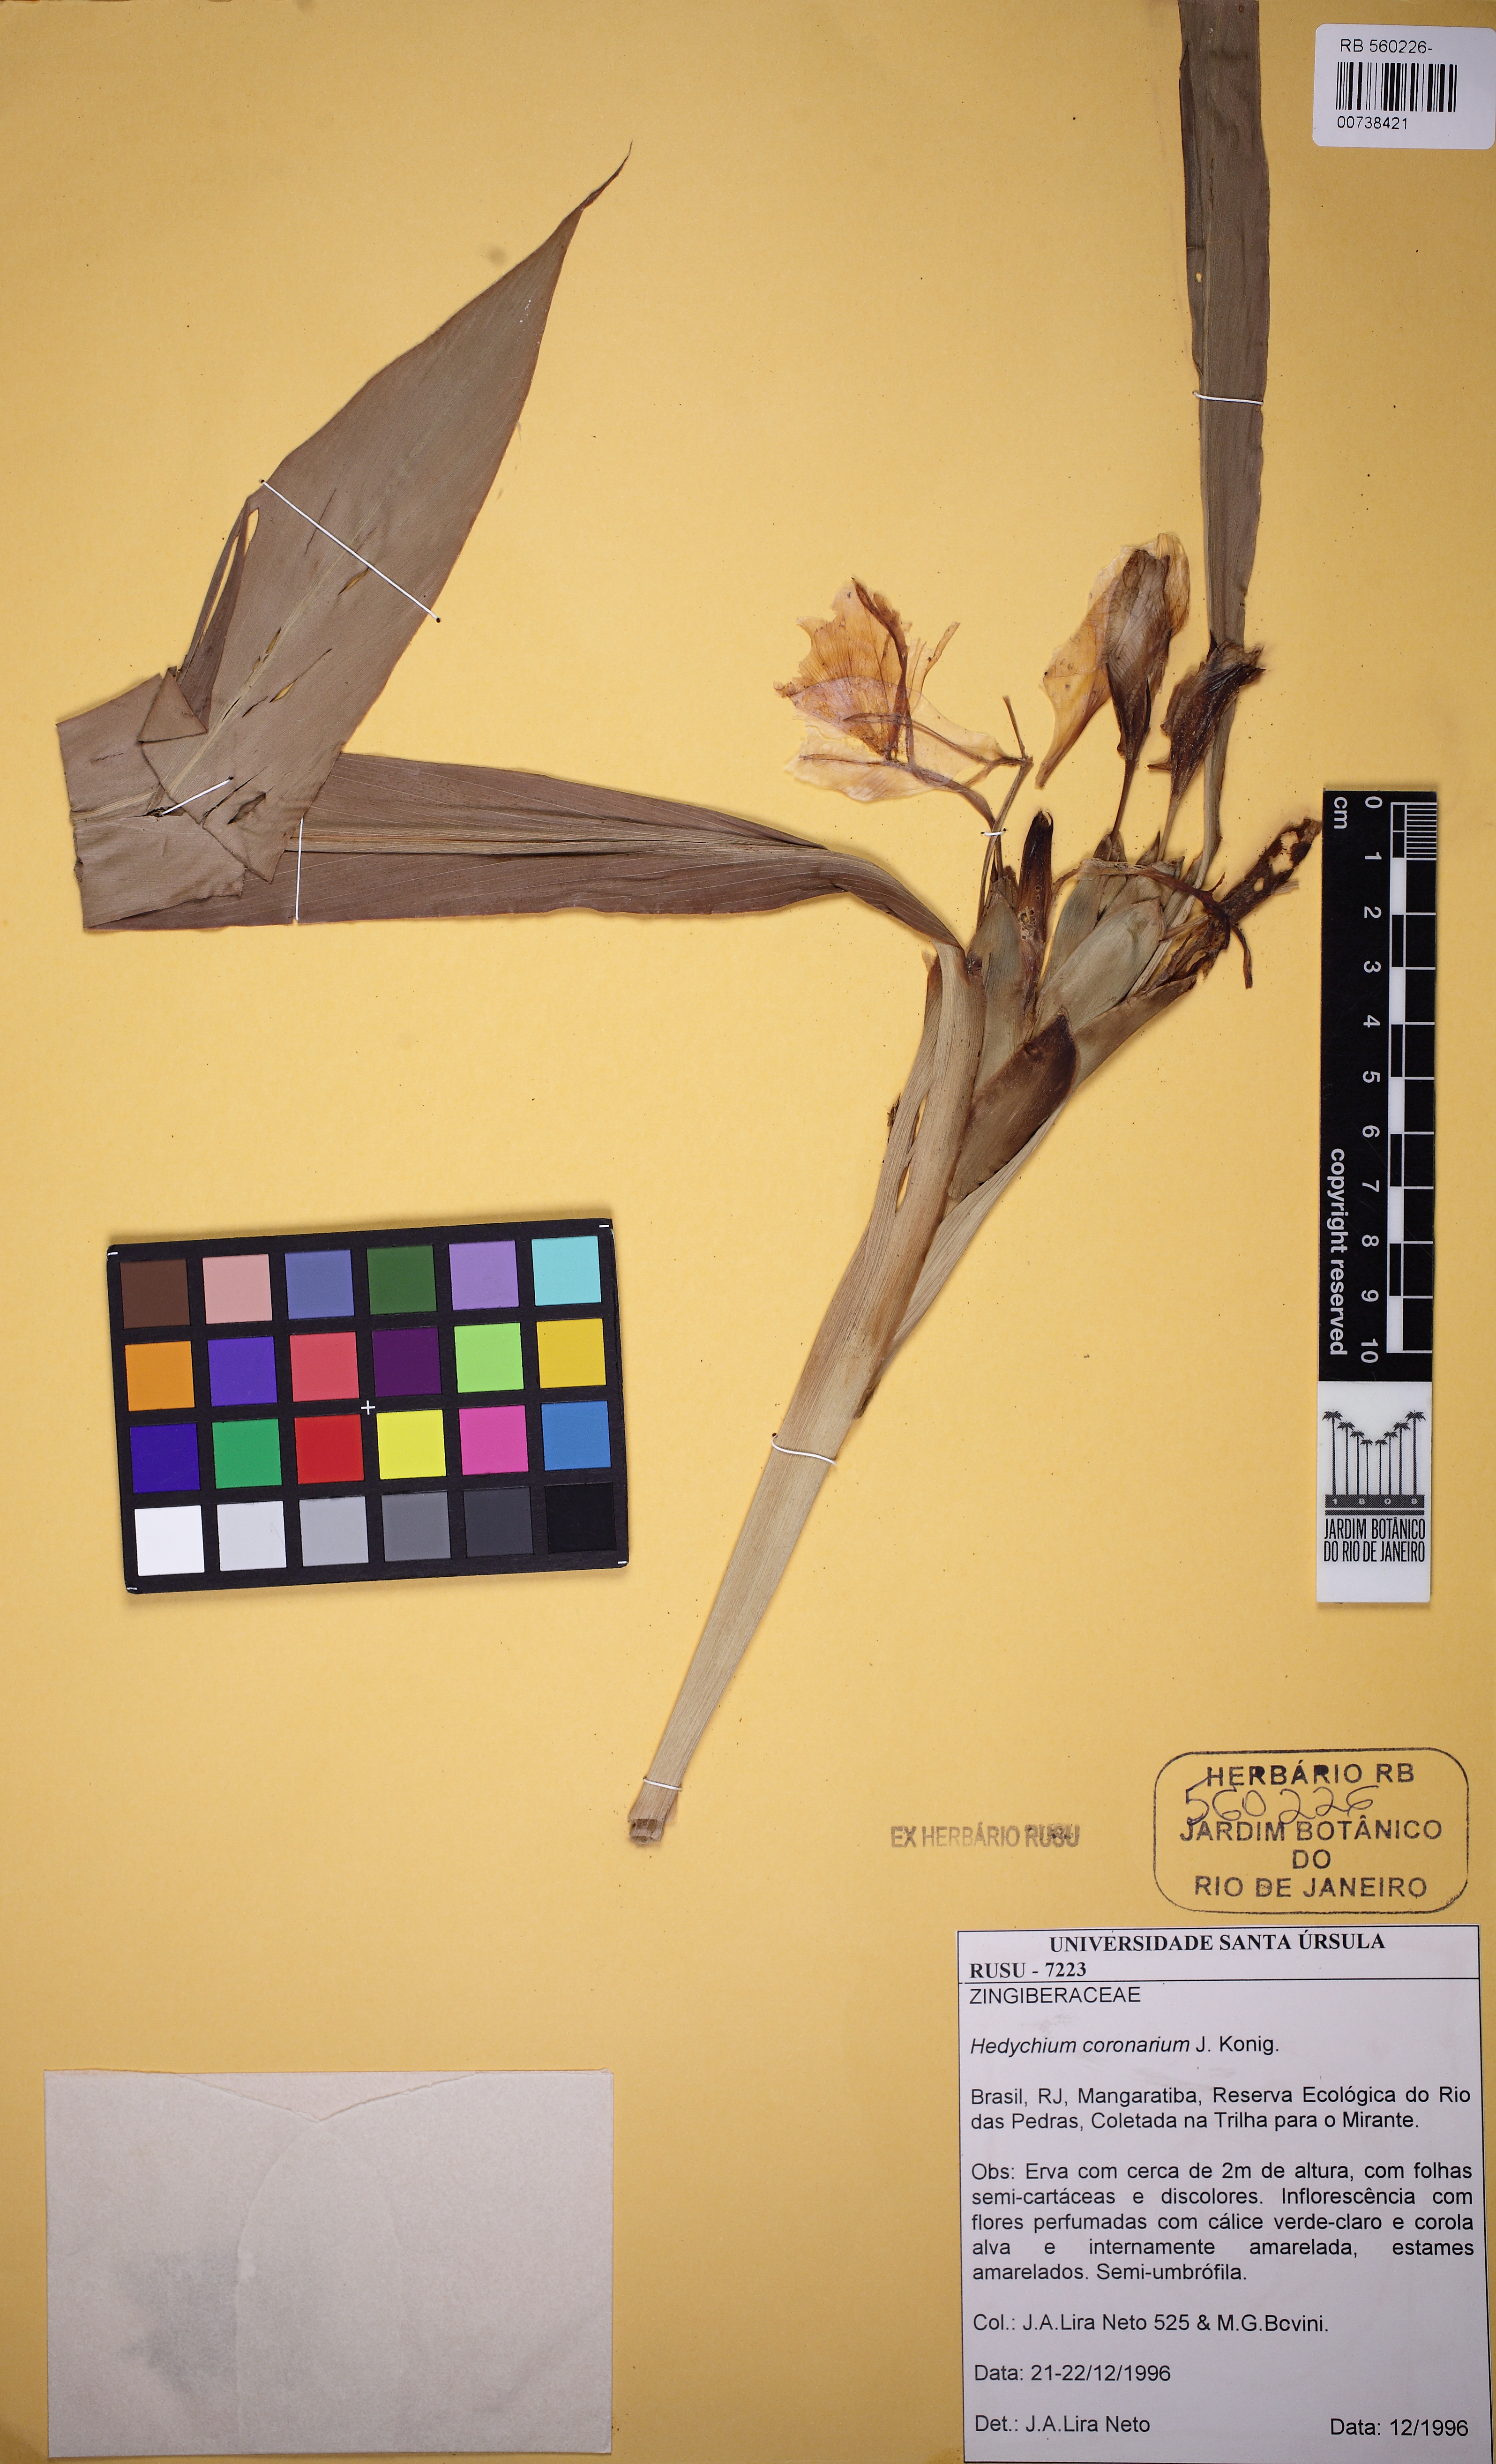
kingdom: Plantae
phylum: Tracheophyta
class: Liliopsida
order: Zingiberales
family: Zingiberaceae
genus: Hedychium
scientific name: Hedychium coronarium
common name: White garland-lily
